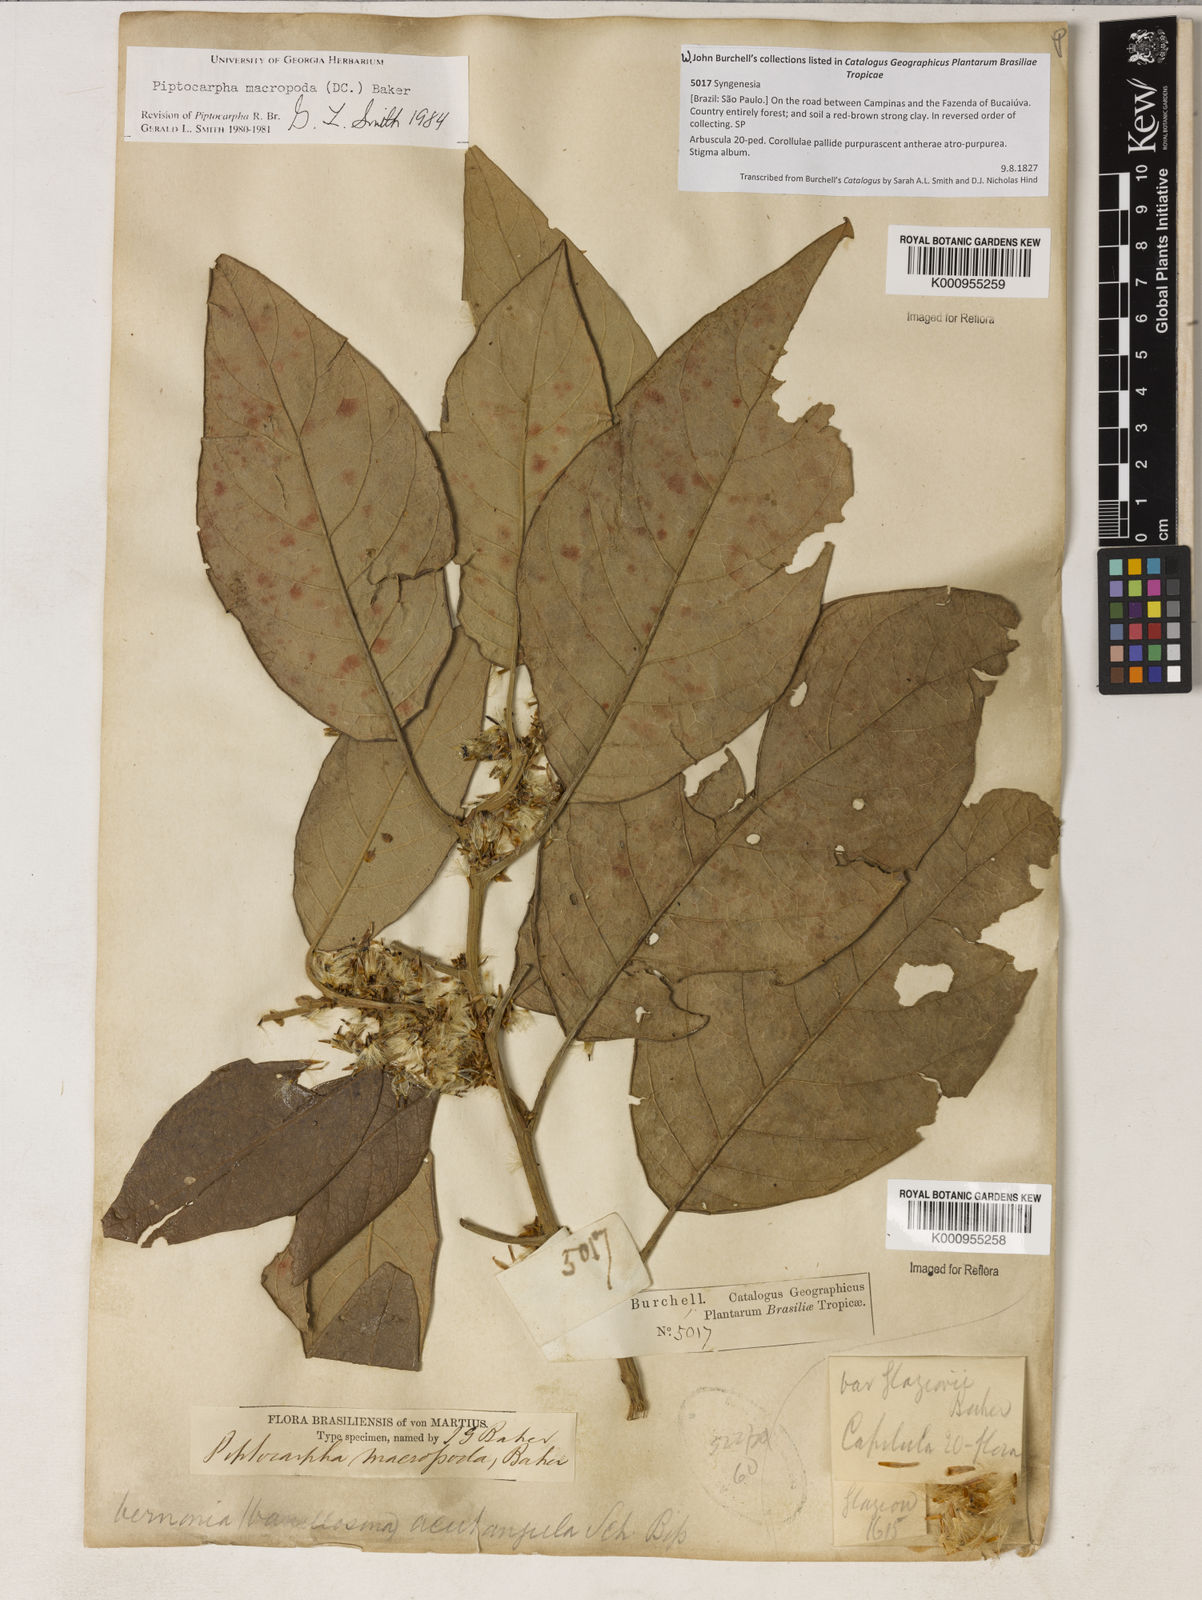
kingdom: Plantae
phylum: Tracheophyta
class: Magnoliopsida
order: Asterales
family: Asteraceae
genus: Piptocarpha
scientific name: Piptocarpha macropoda
